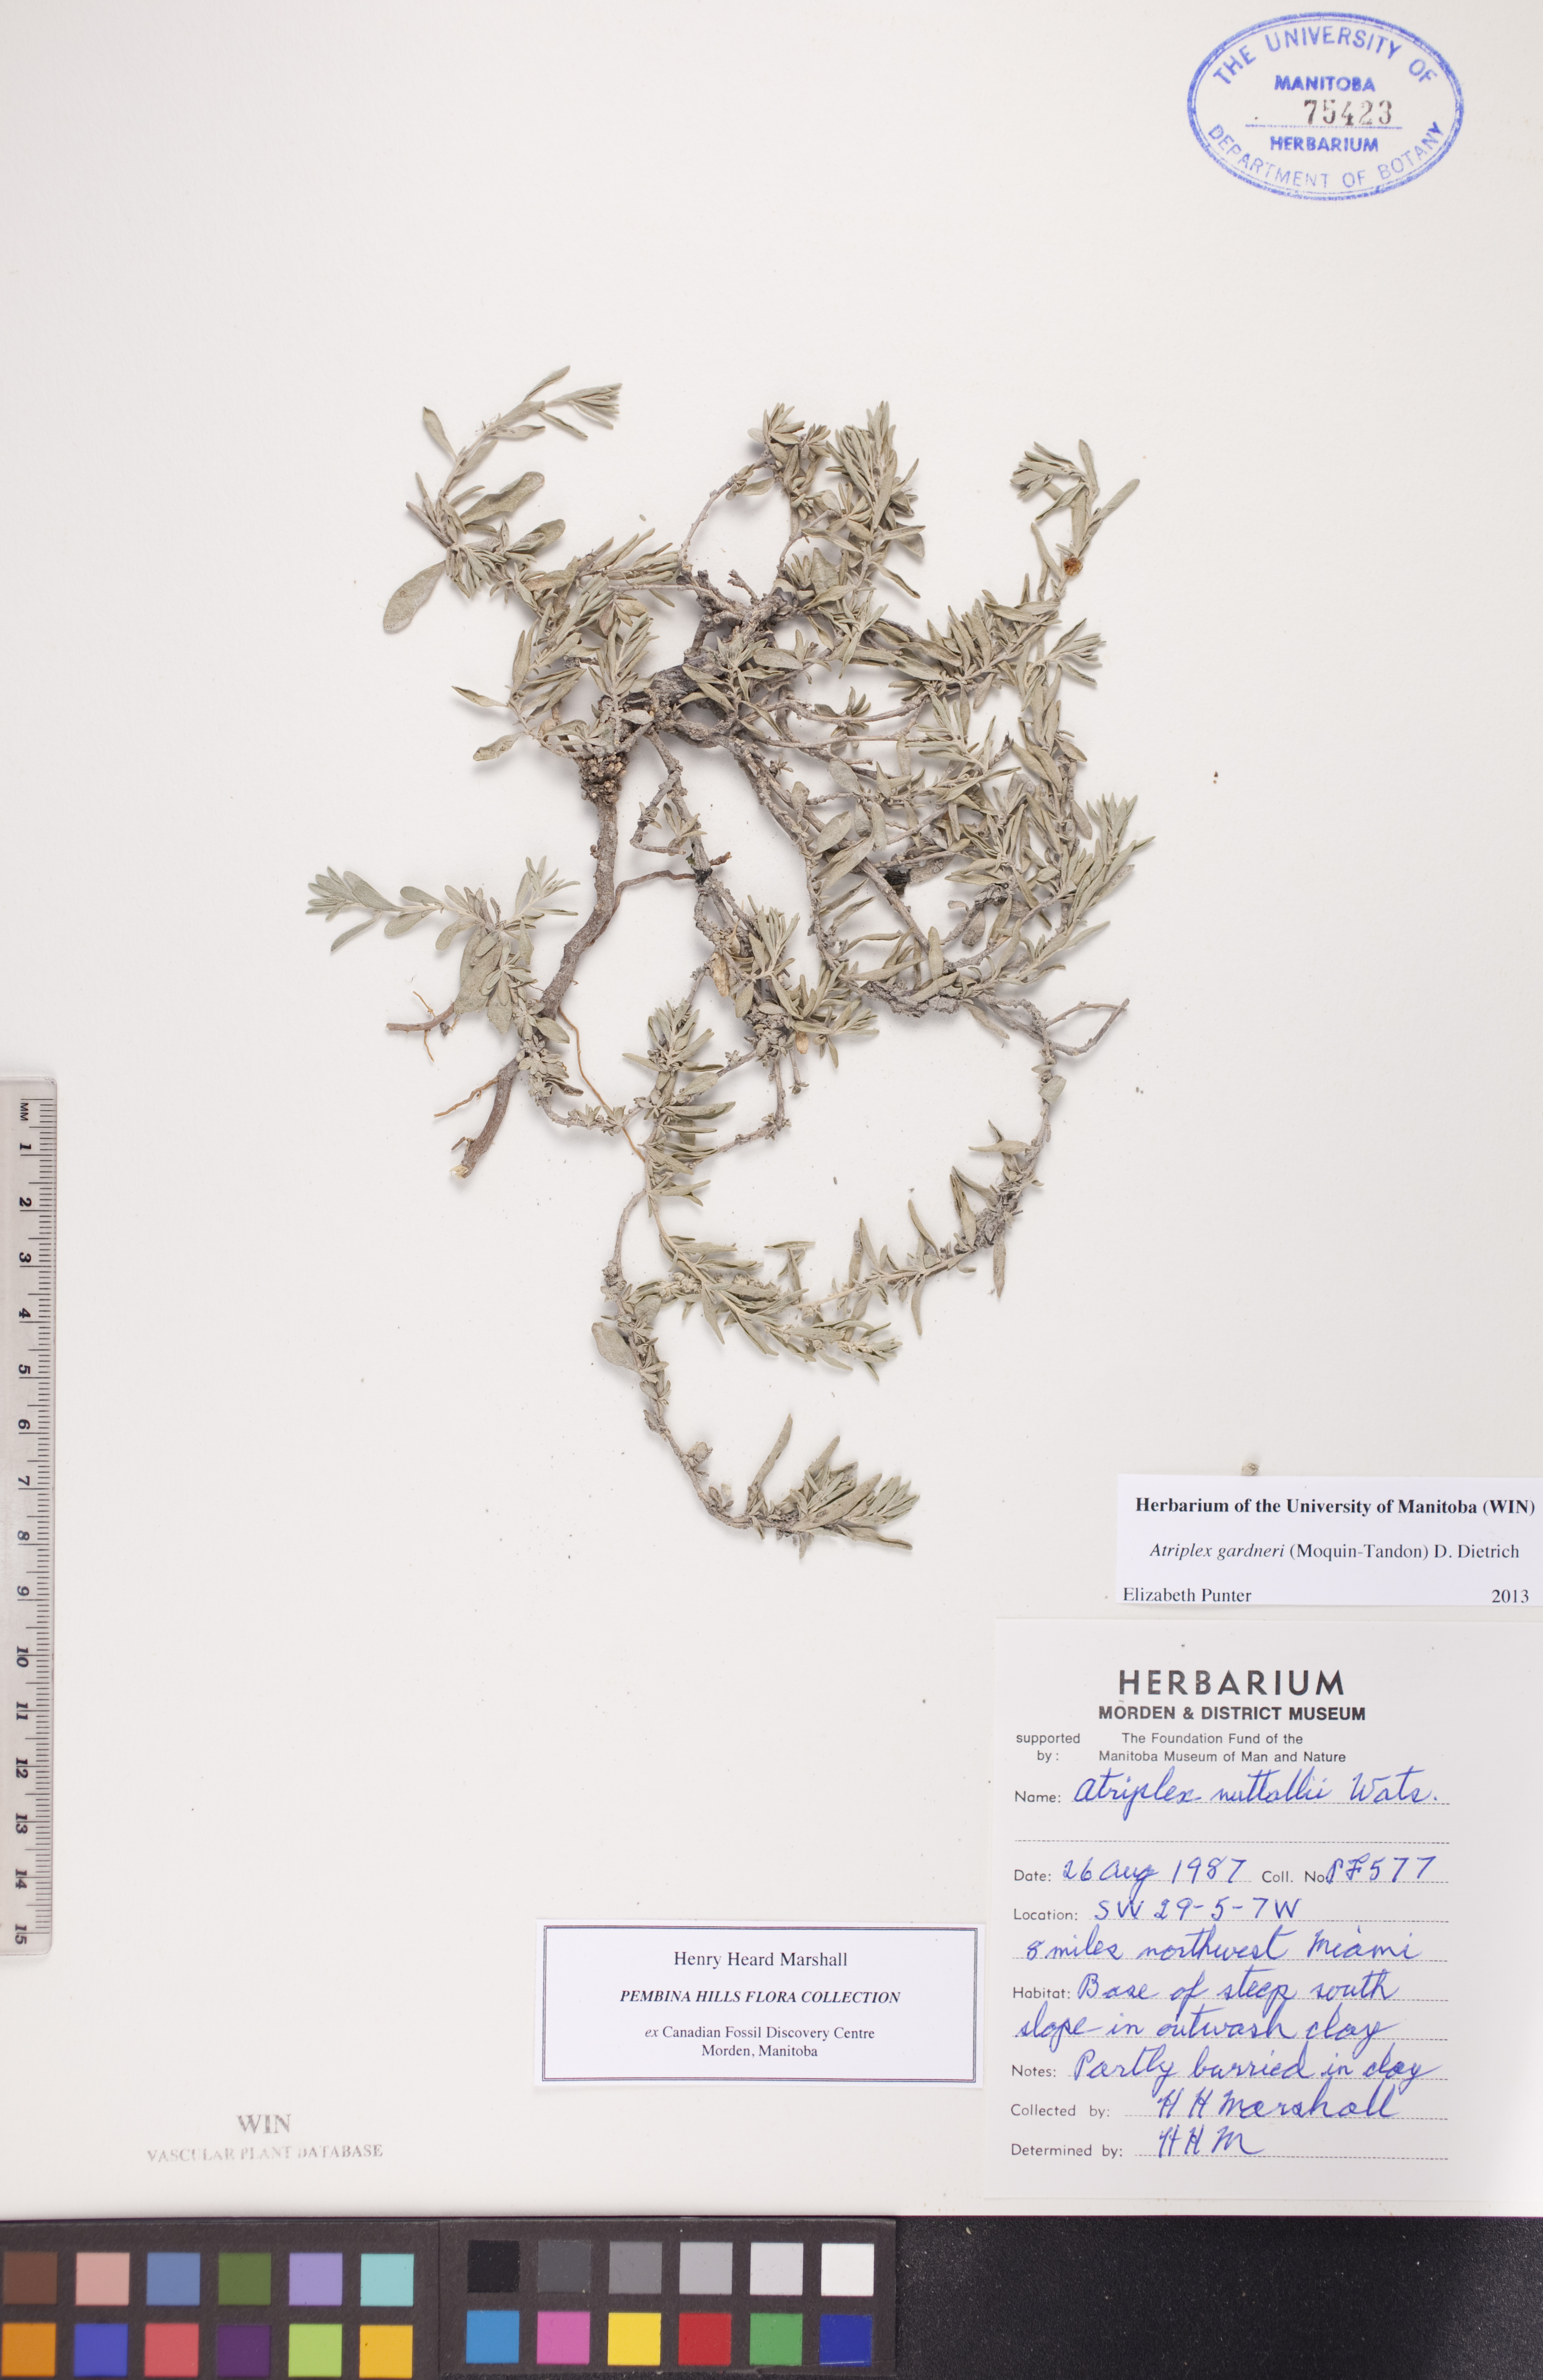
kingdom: Plantae
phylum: Tracheophyta
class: Magnoliopsida
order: Caryophyllales
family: Amaranthaceae
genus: Atriplex
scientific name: Atriplex gardneri
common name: Gardner's orache
